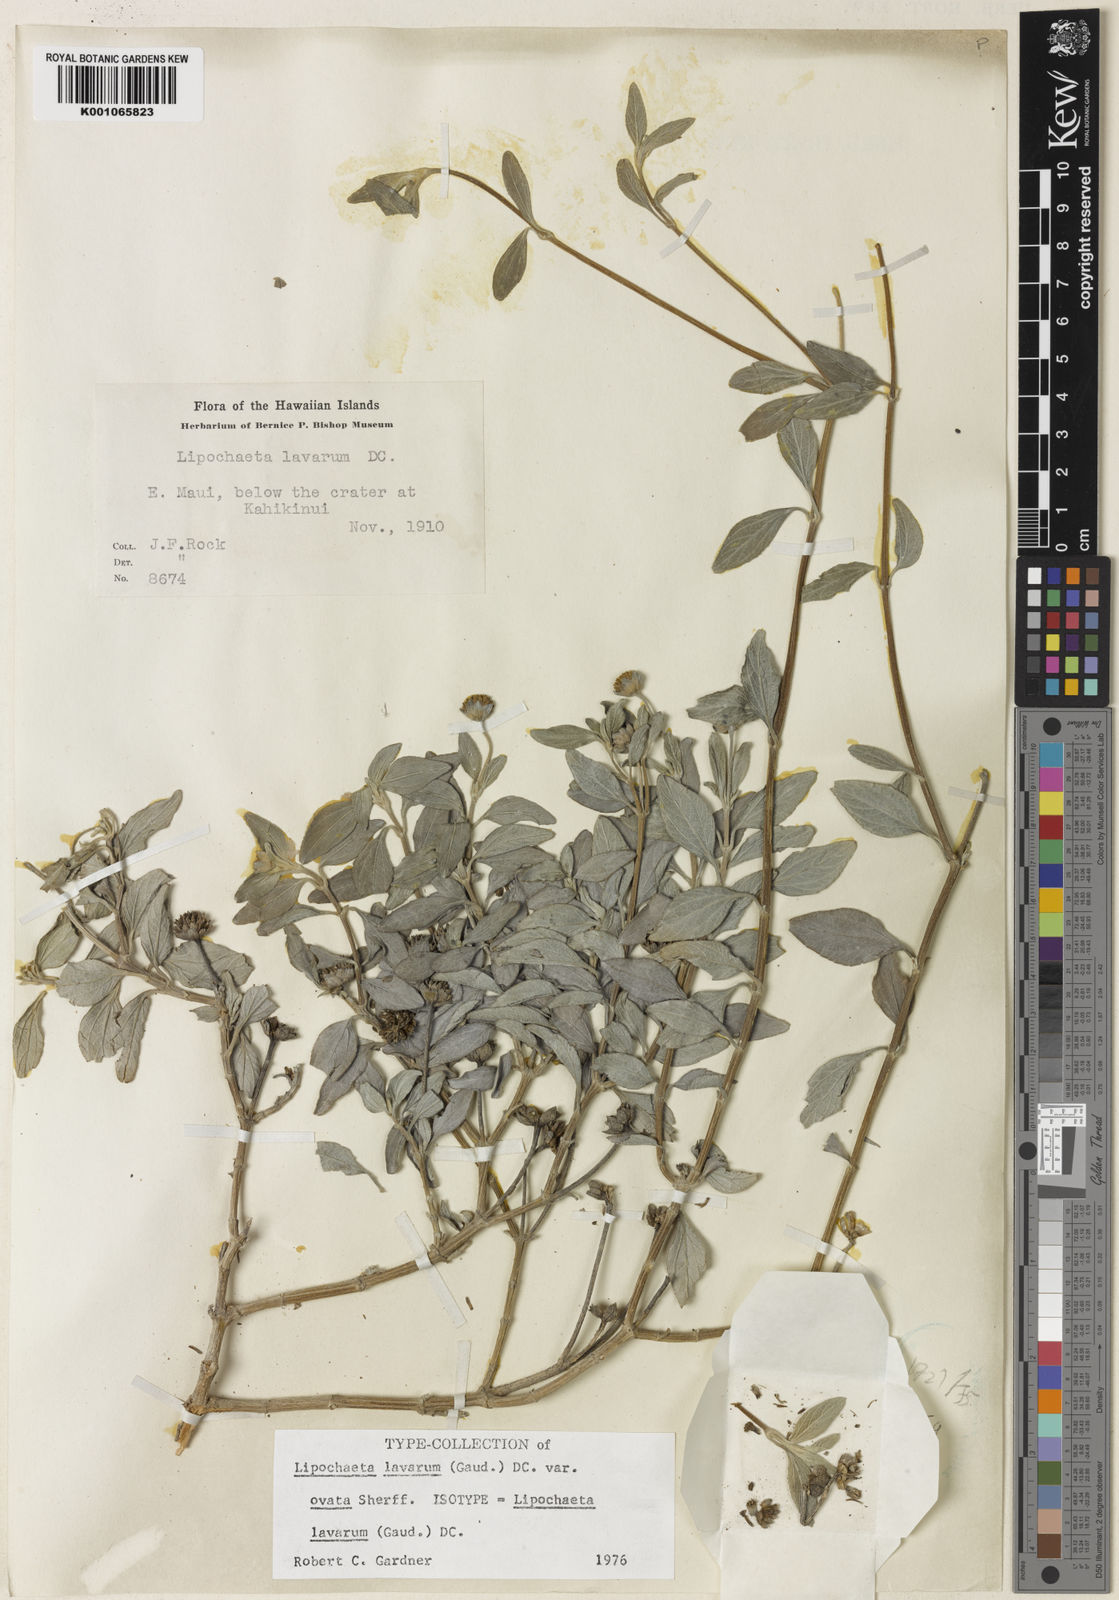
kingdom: Plantae
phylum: Tracheophyta
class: Magnoliopsida
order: Asterales
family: Asteraceae
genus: Lipochaeta
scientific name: Lipochaeta lavarum
